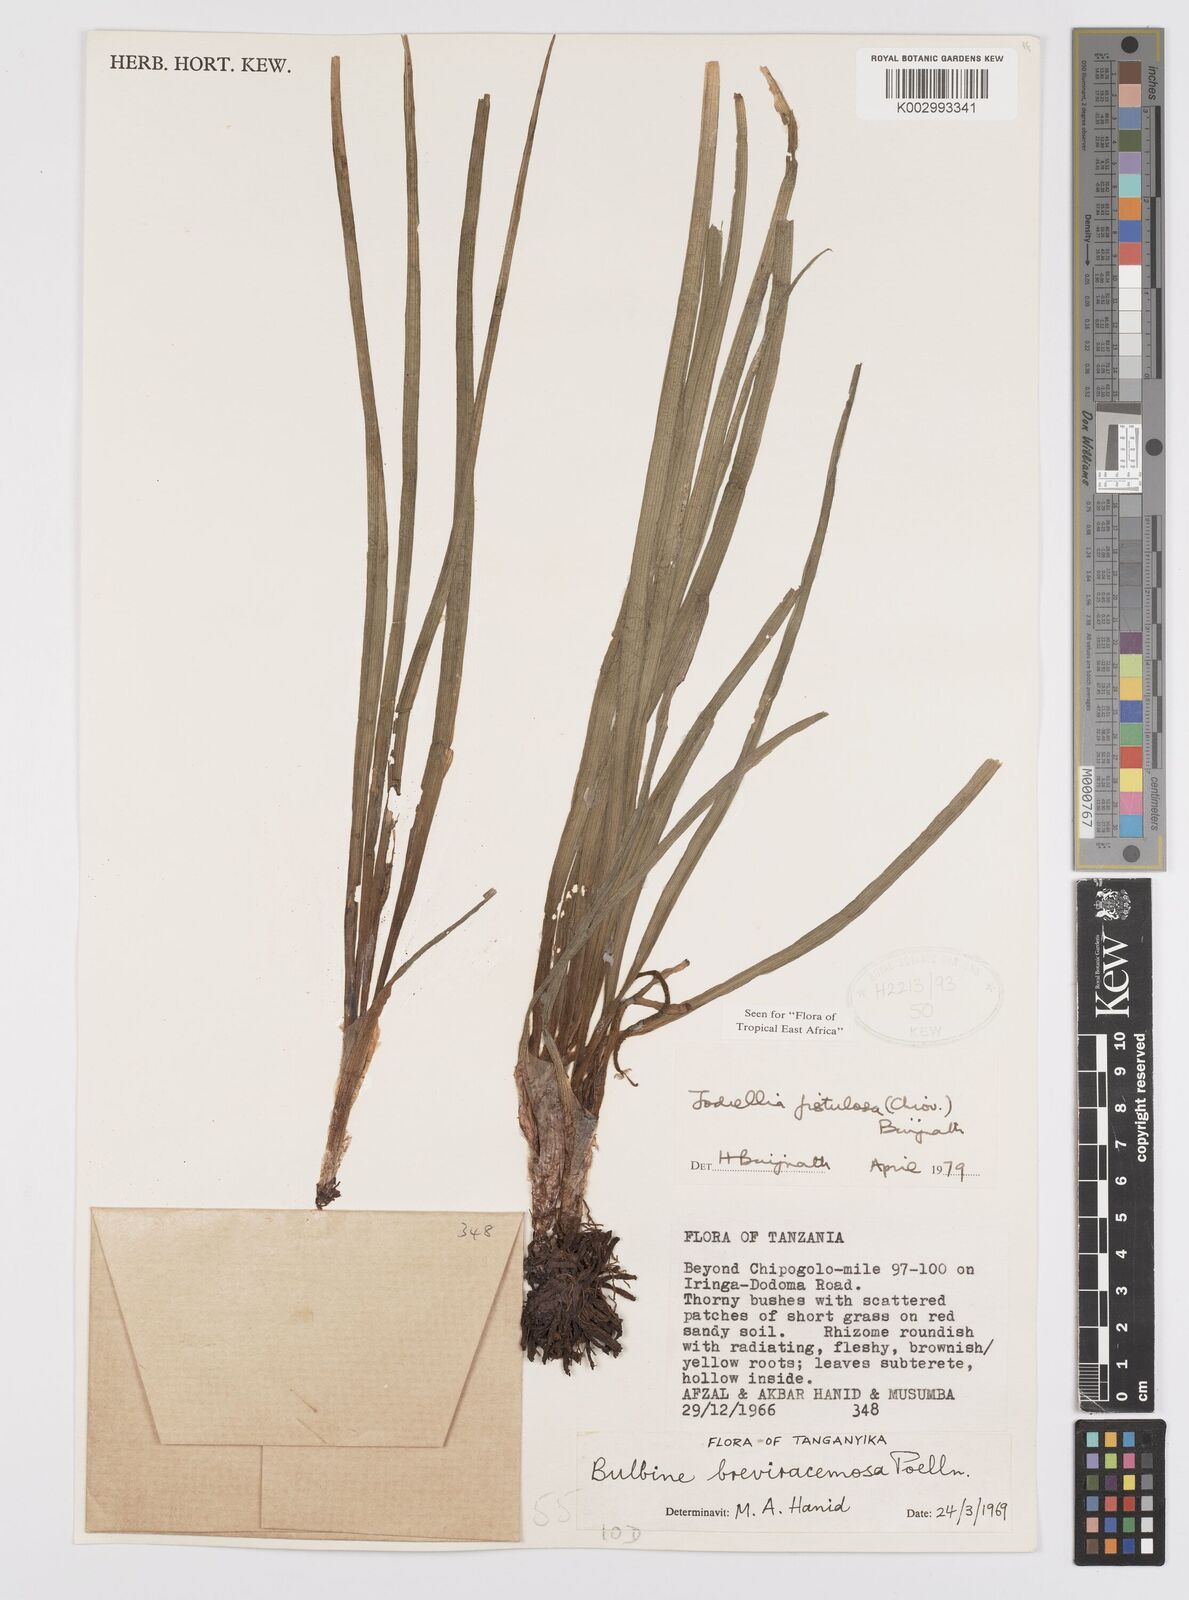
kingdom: Plantae
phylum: Tracheophyta
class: Liliopsida
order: Asparagales
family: Asphodelaceae
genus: Bulbine
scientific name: Bulbine fistulosa
